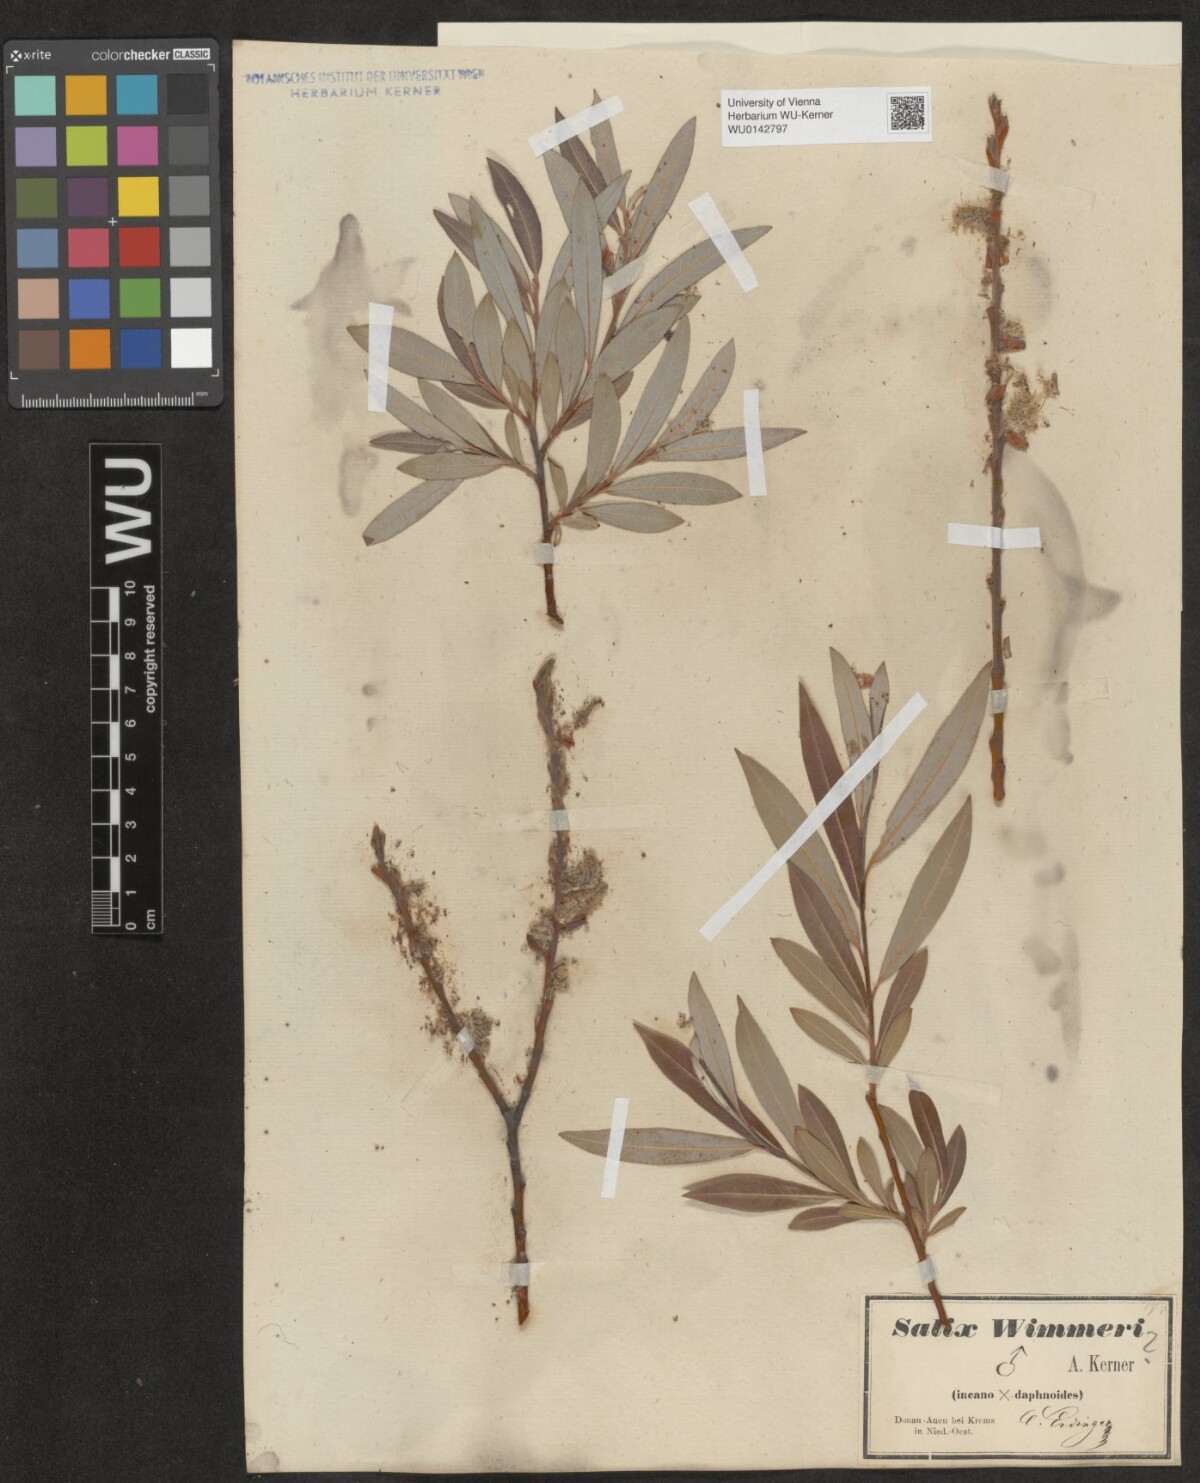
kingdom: Plantae
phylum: Tracheophyta
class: Magnoliopsida
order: Malpighiales
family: Salicaceae
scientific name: Salicaceae
